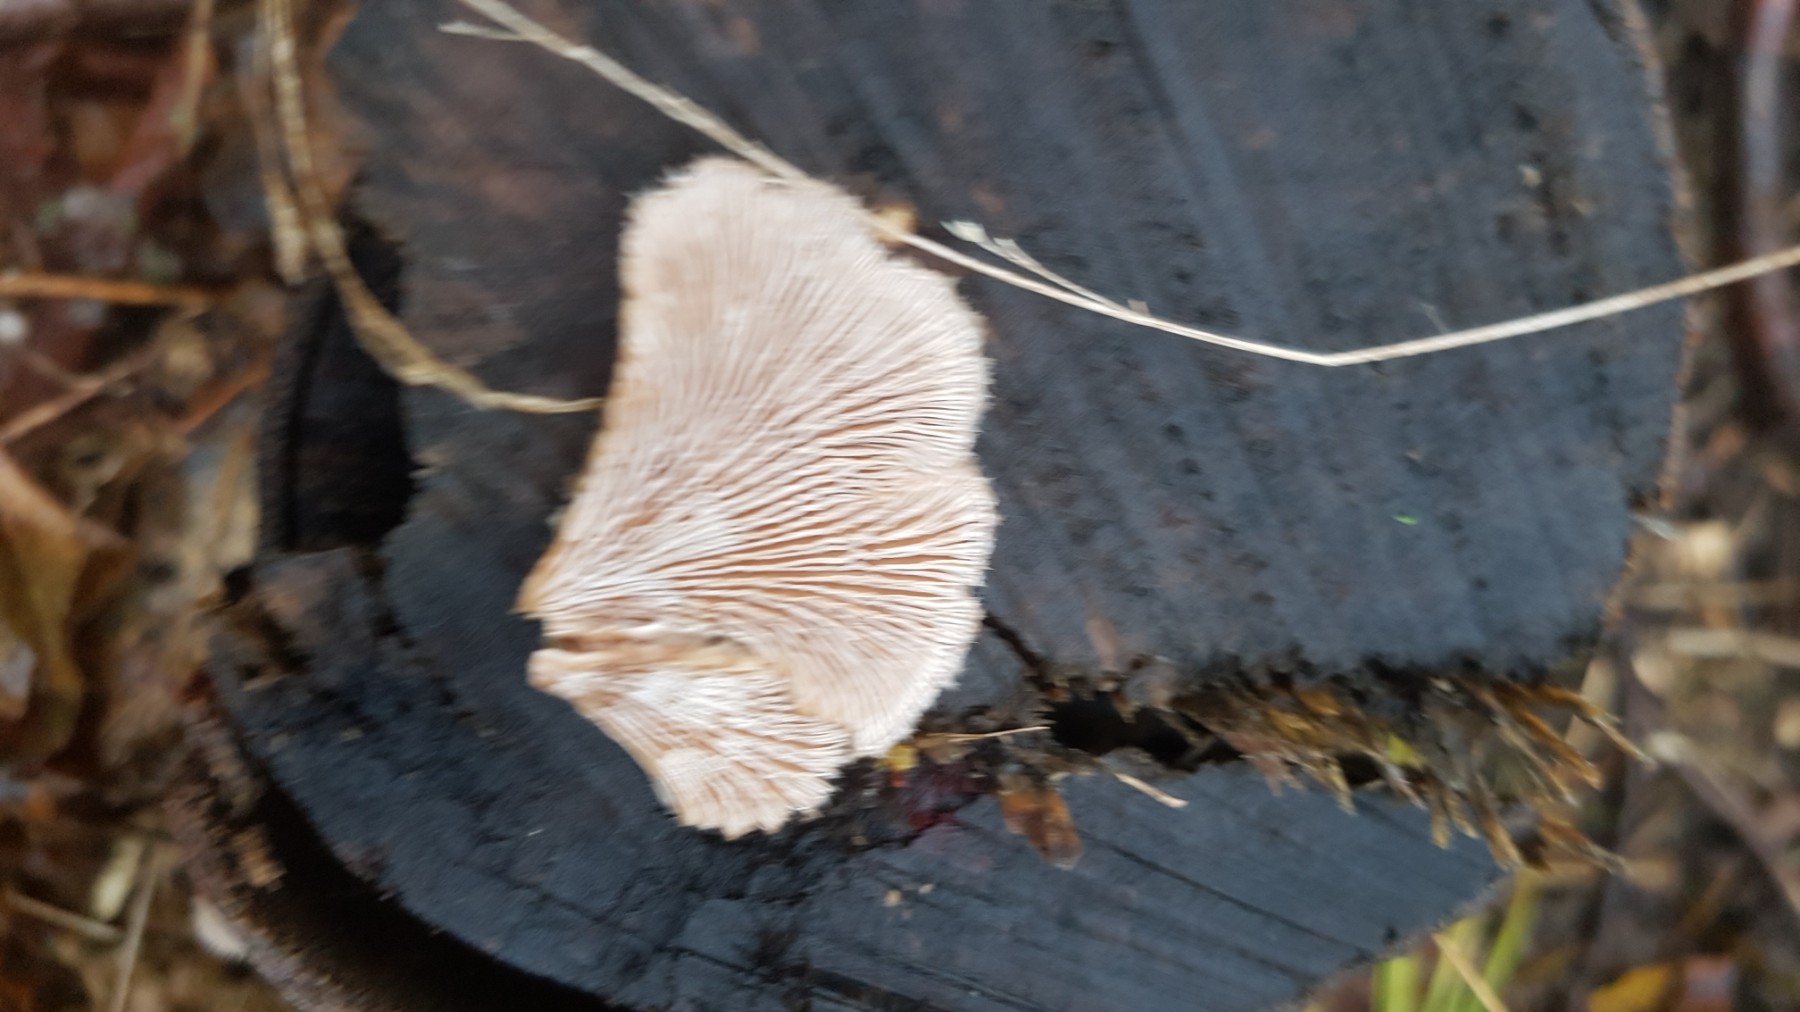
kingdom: Fungi
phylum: Basidiomycota
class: Agaricomycetes
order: Agaricales
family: Schizophyllaceae
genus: Schizophyllum
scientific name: Schizophyllum commune
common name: kløvblad
